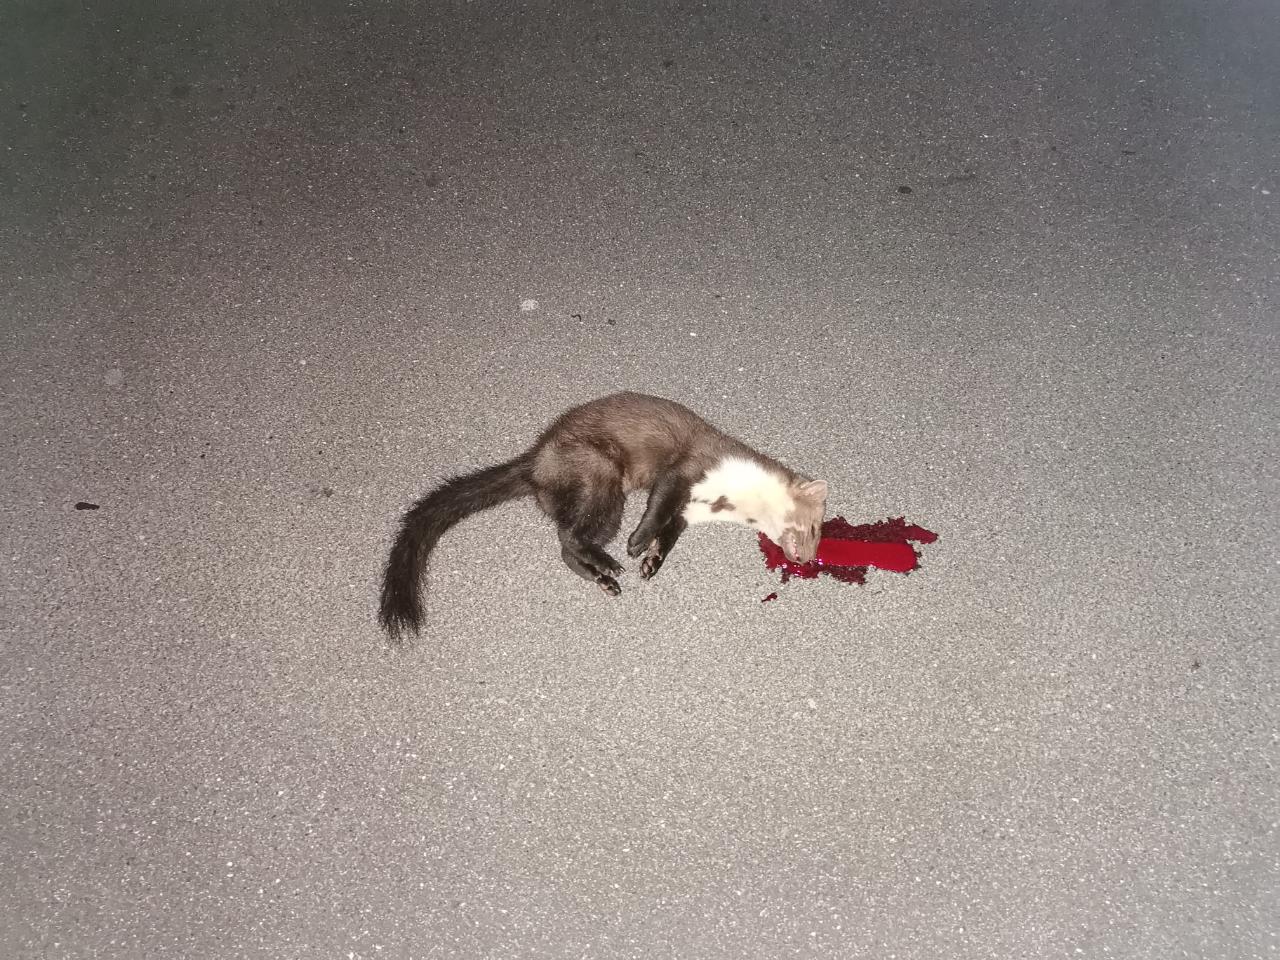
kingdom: Animalia
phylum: Chordata
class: Mammalia
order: Carnivora
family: Mustelidae
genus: Martes
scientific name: Martes foina
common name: Beech marten
